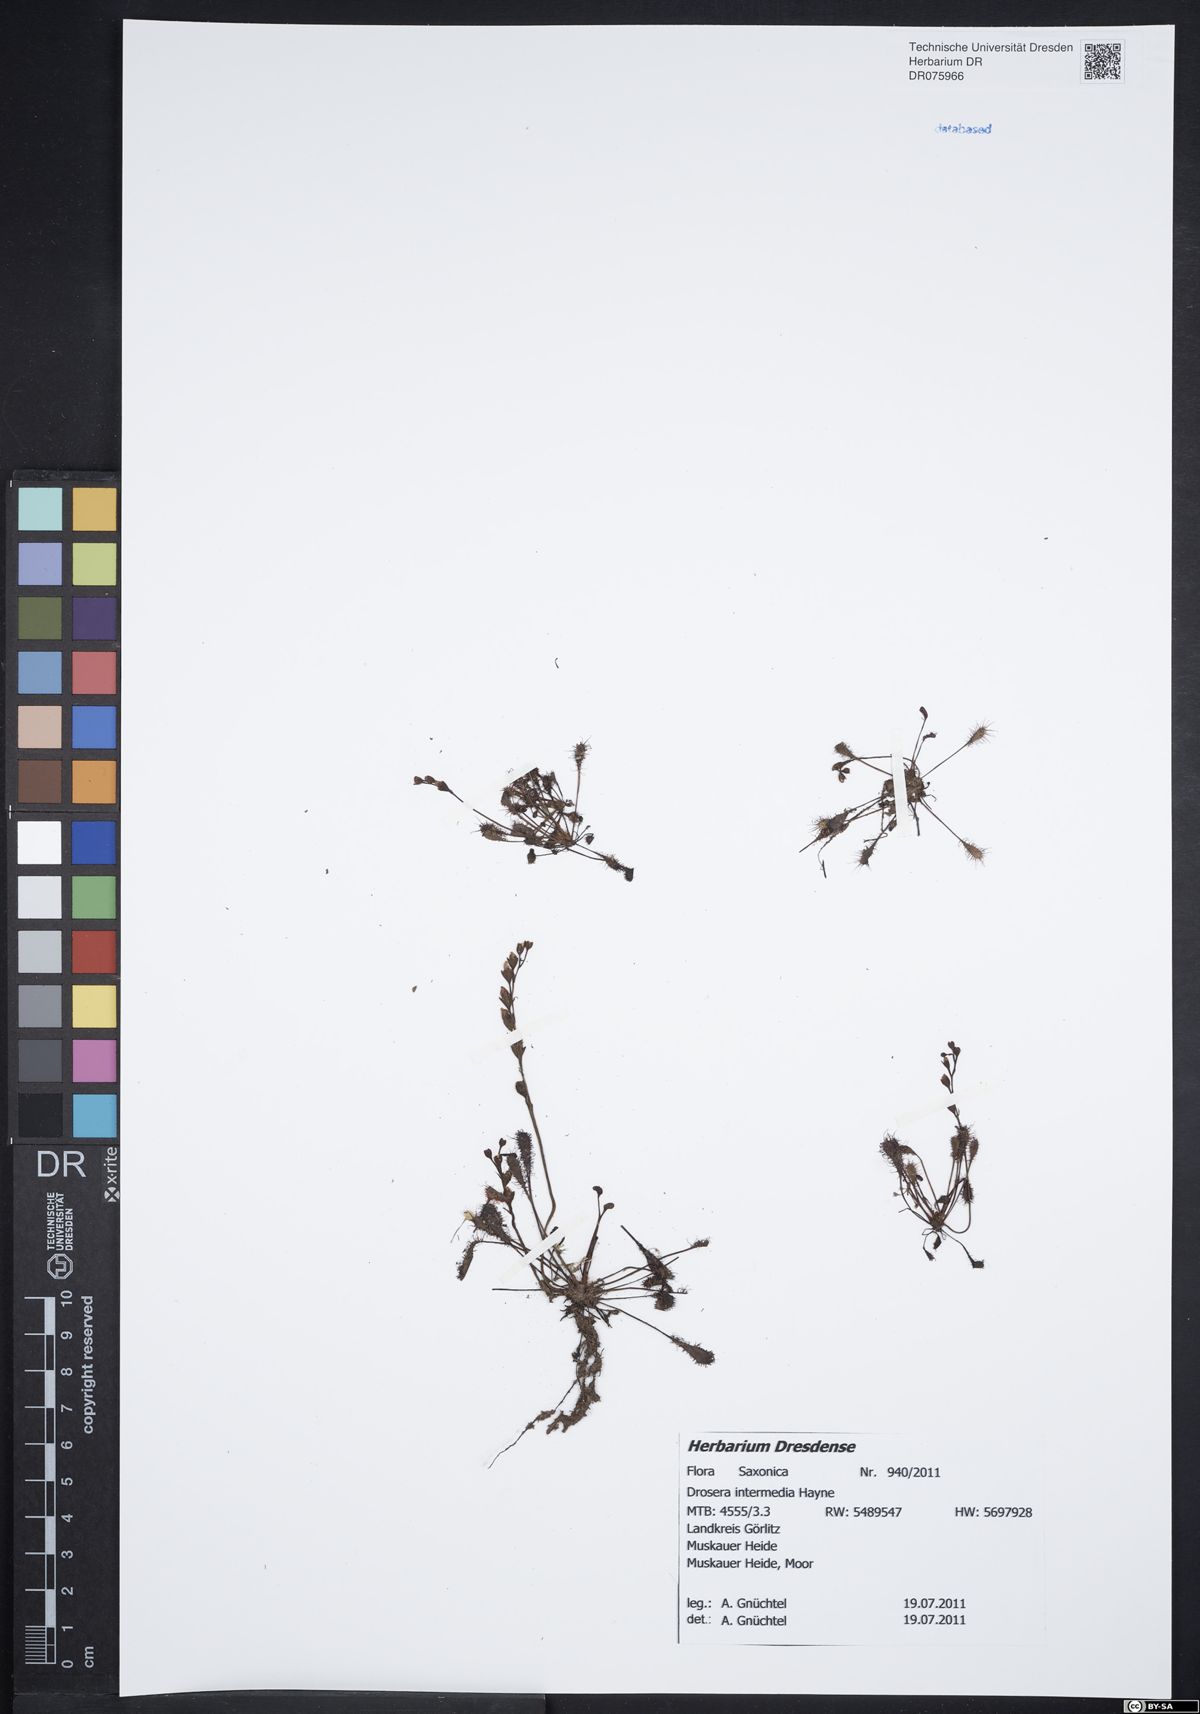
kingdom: Plantae
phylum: Tracheophyta
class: Magnoliopsida
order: Caryophyllales
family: Droseraceae
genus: Drosera
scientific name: Drosera intermedia
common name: Oblong-leaved sundew
